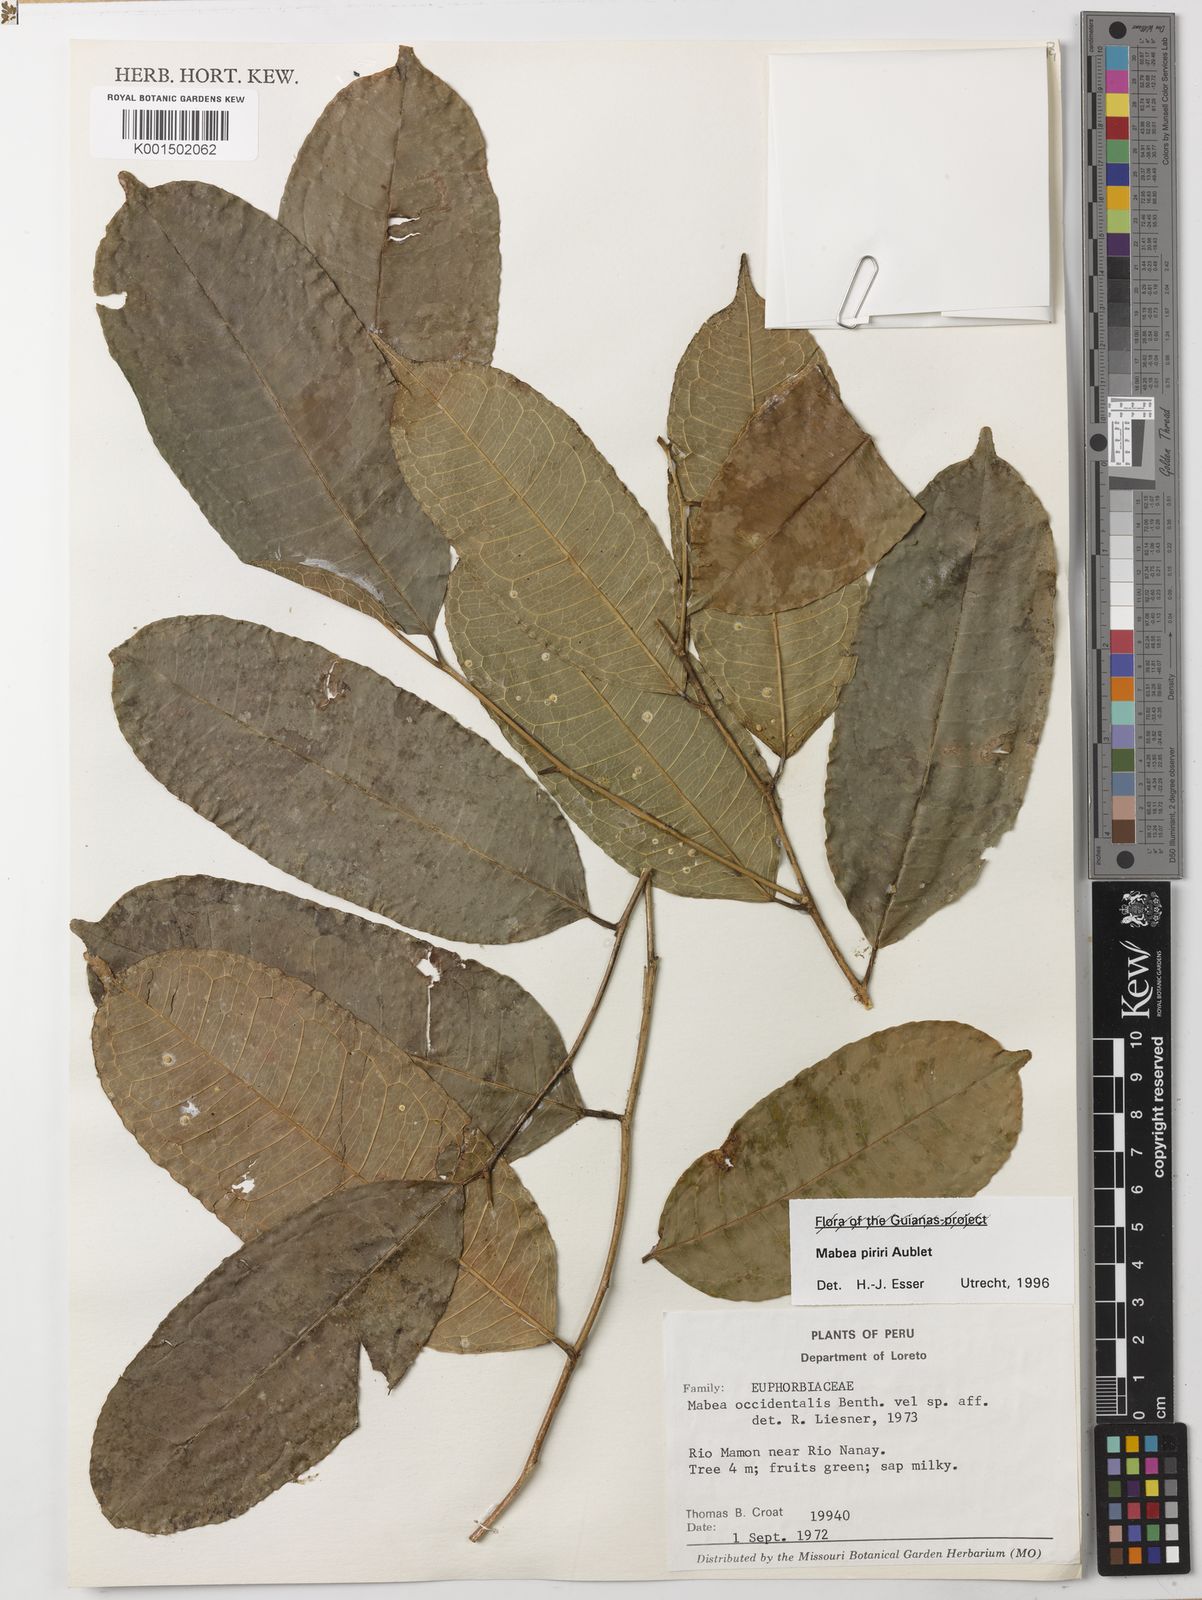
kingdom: Plantae
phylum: Tracheophyta
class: Magnoliopsida
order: Malpighiales
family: Euphorbiaceae
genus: Mabea
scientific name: Mabea piriri
